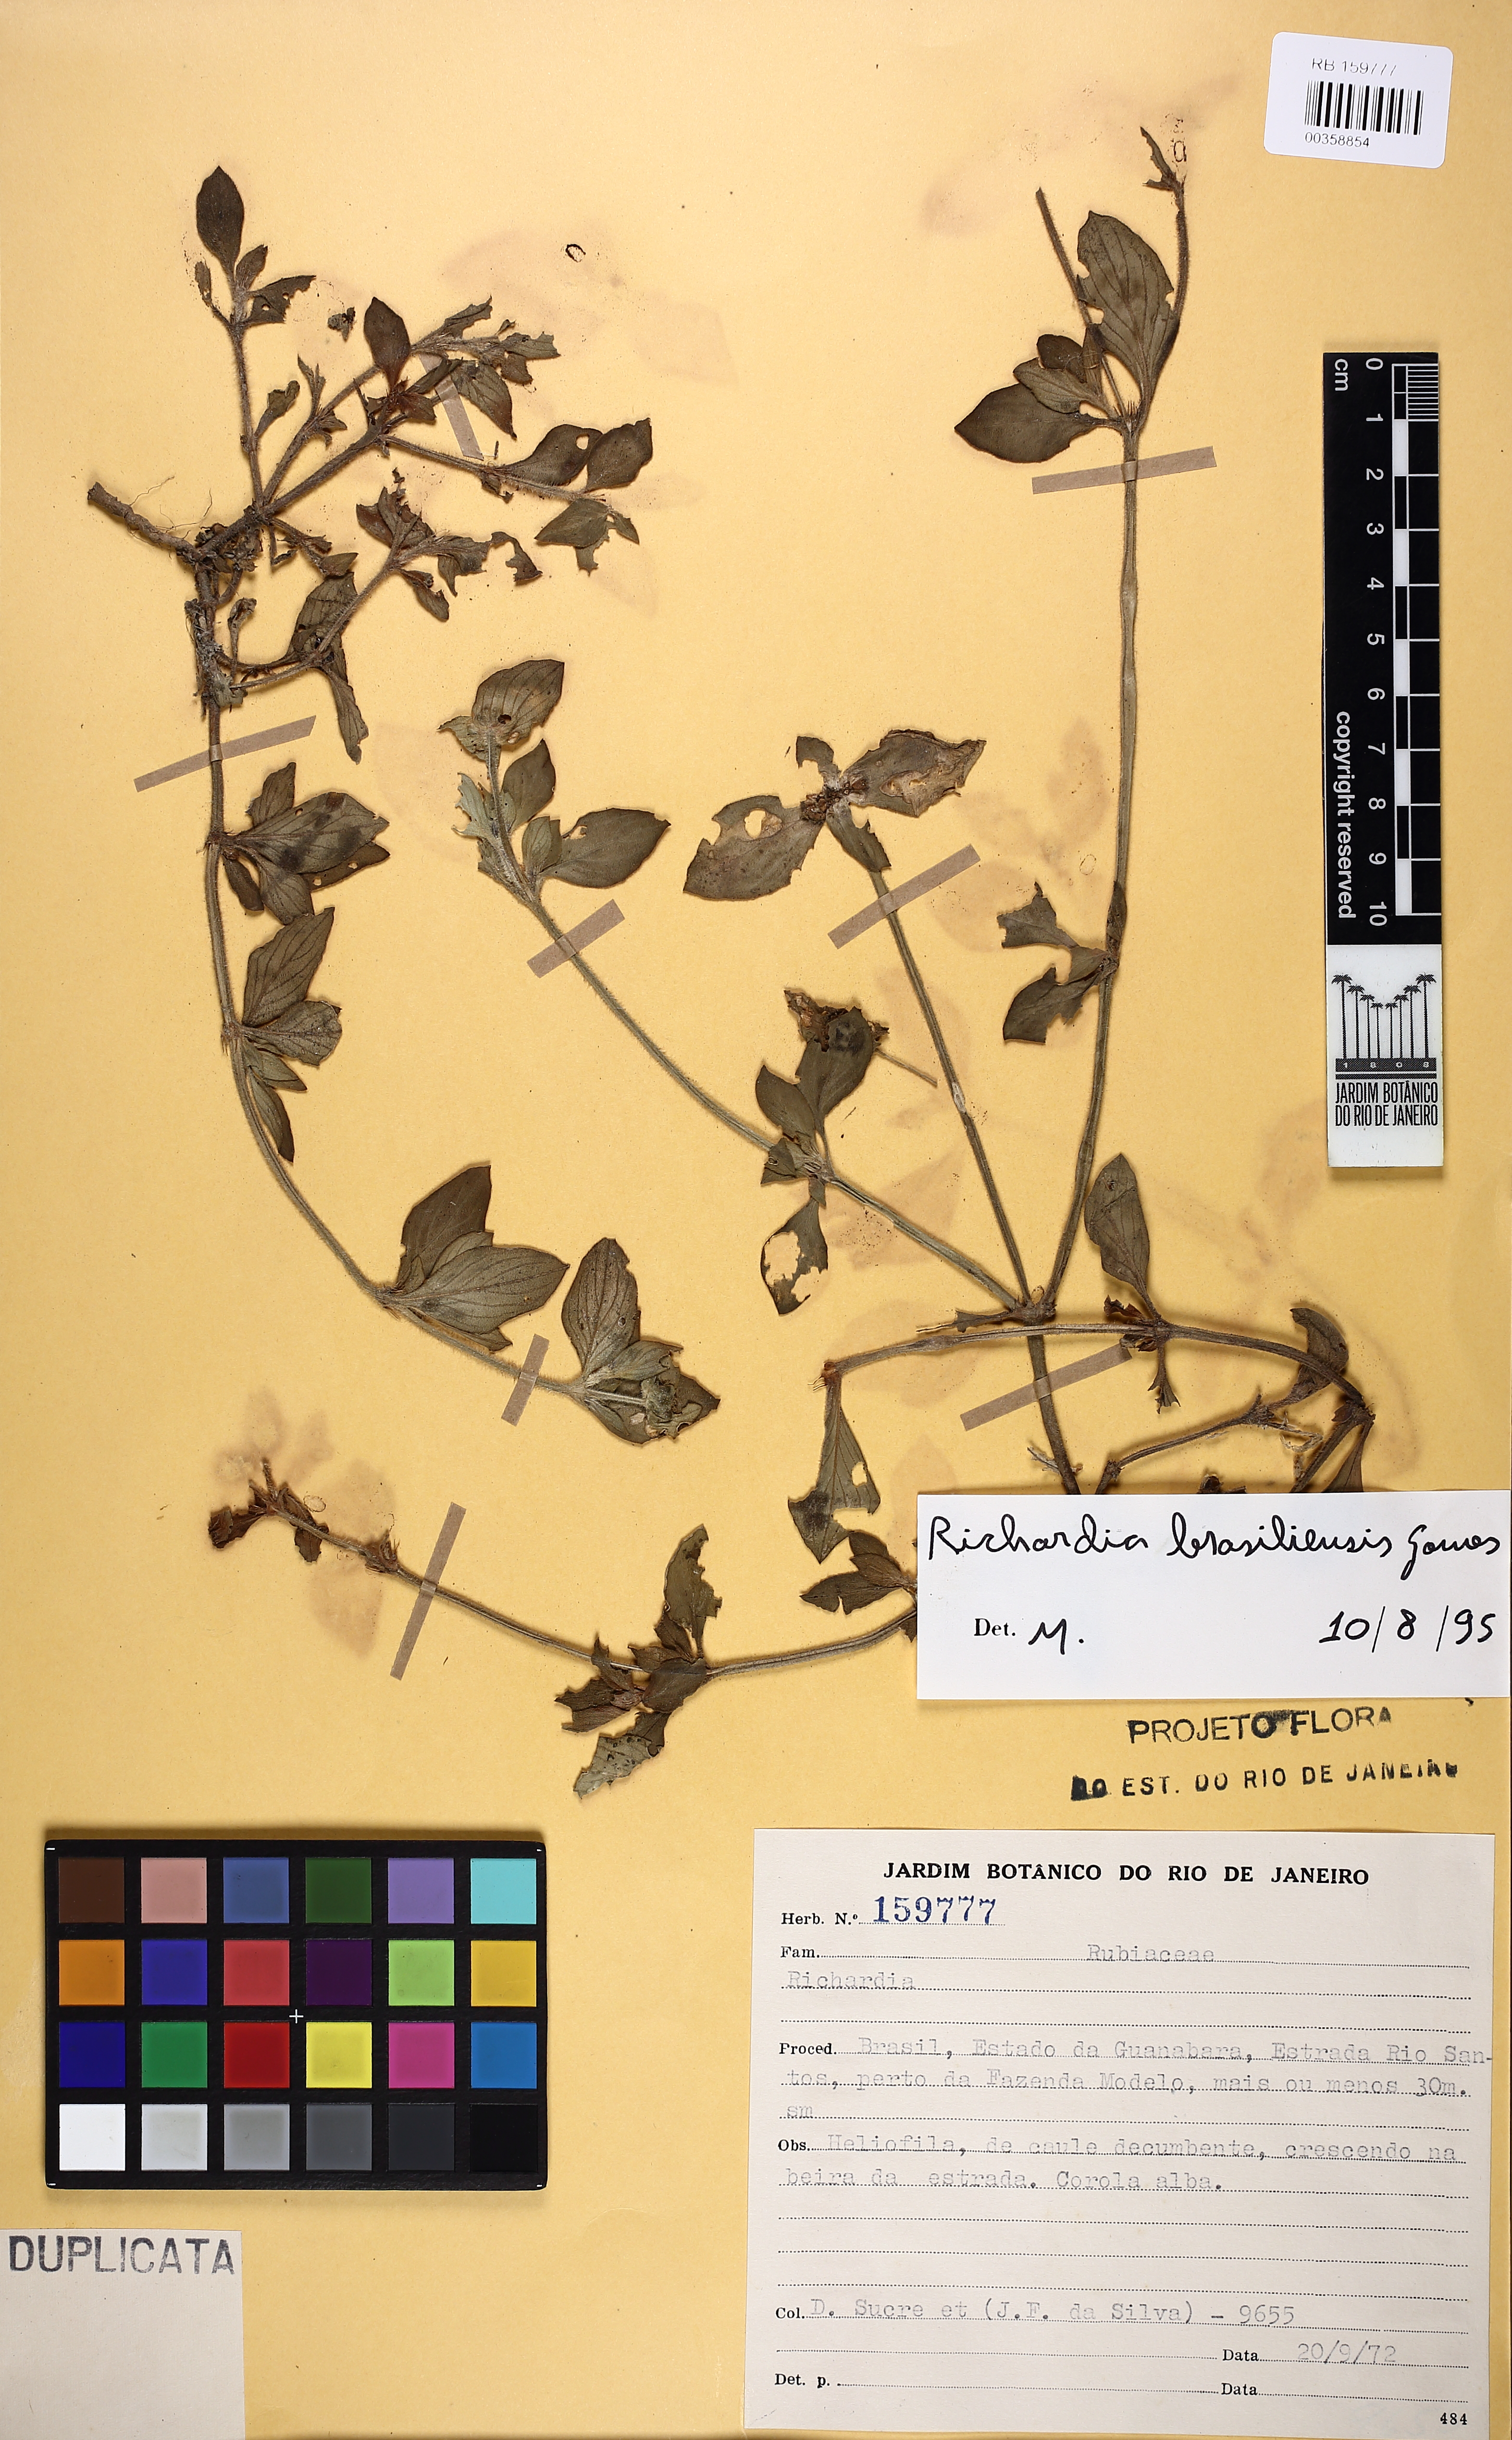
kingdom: Plantae
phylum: Tracheophyta
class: Magnoliopsida
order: Gentianales
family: Rubiaceae
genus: Richardia
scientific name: Richardia brasiliensis
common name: Tropical mexican clover
